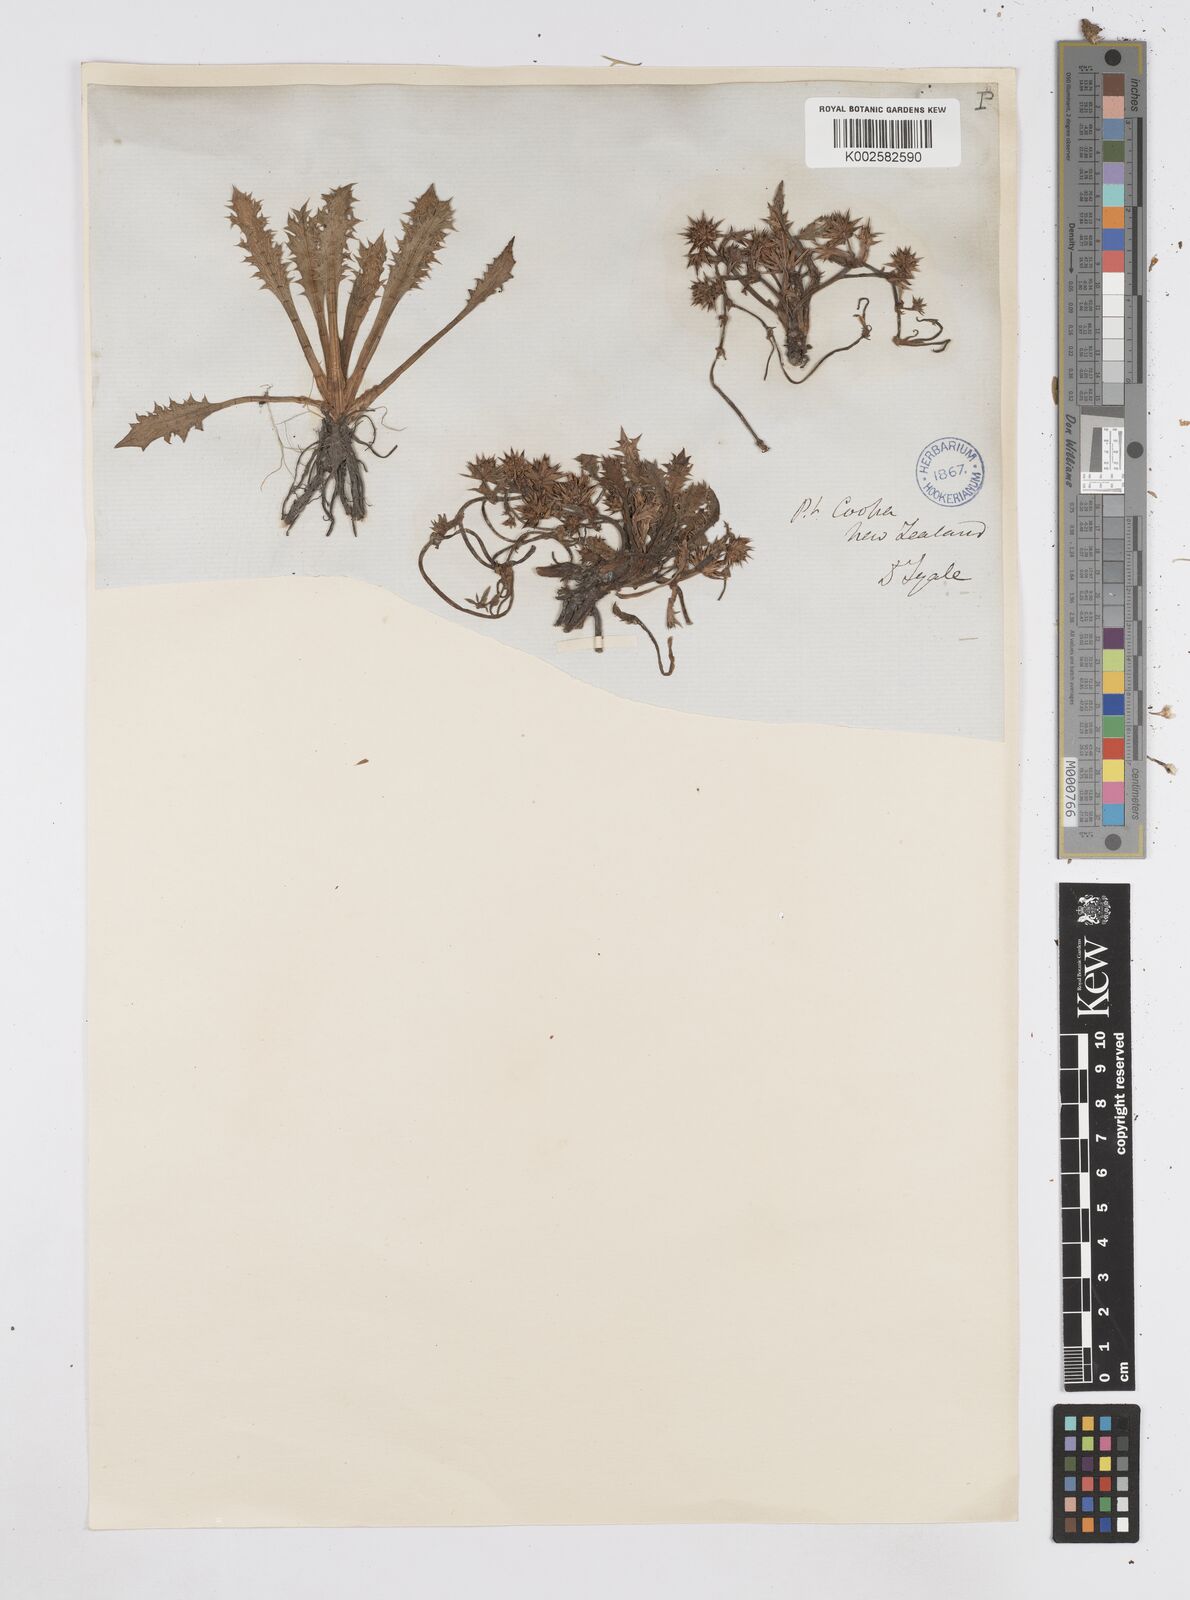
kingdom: Plantae
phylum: Tracheophyta
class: Magnoliopsida
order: Apiales
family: Apiaceae
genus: Eryngium
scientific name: Eryngium vesiculosum
